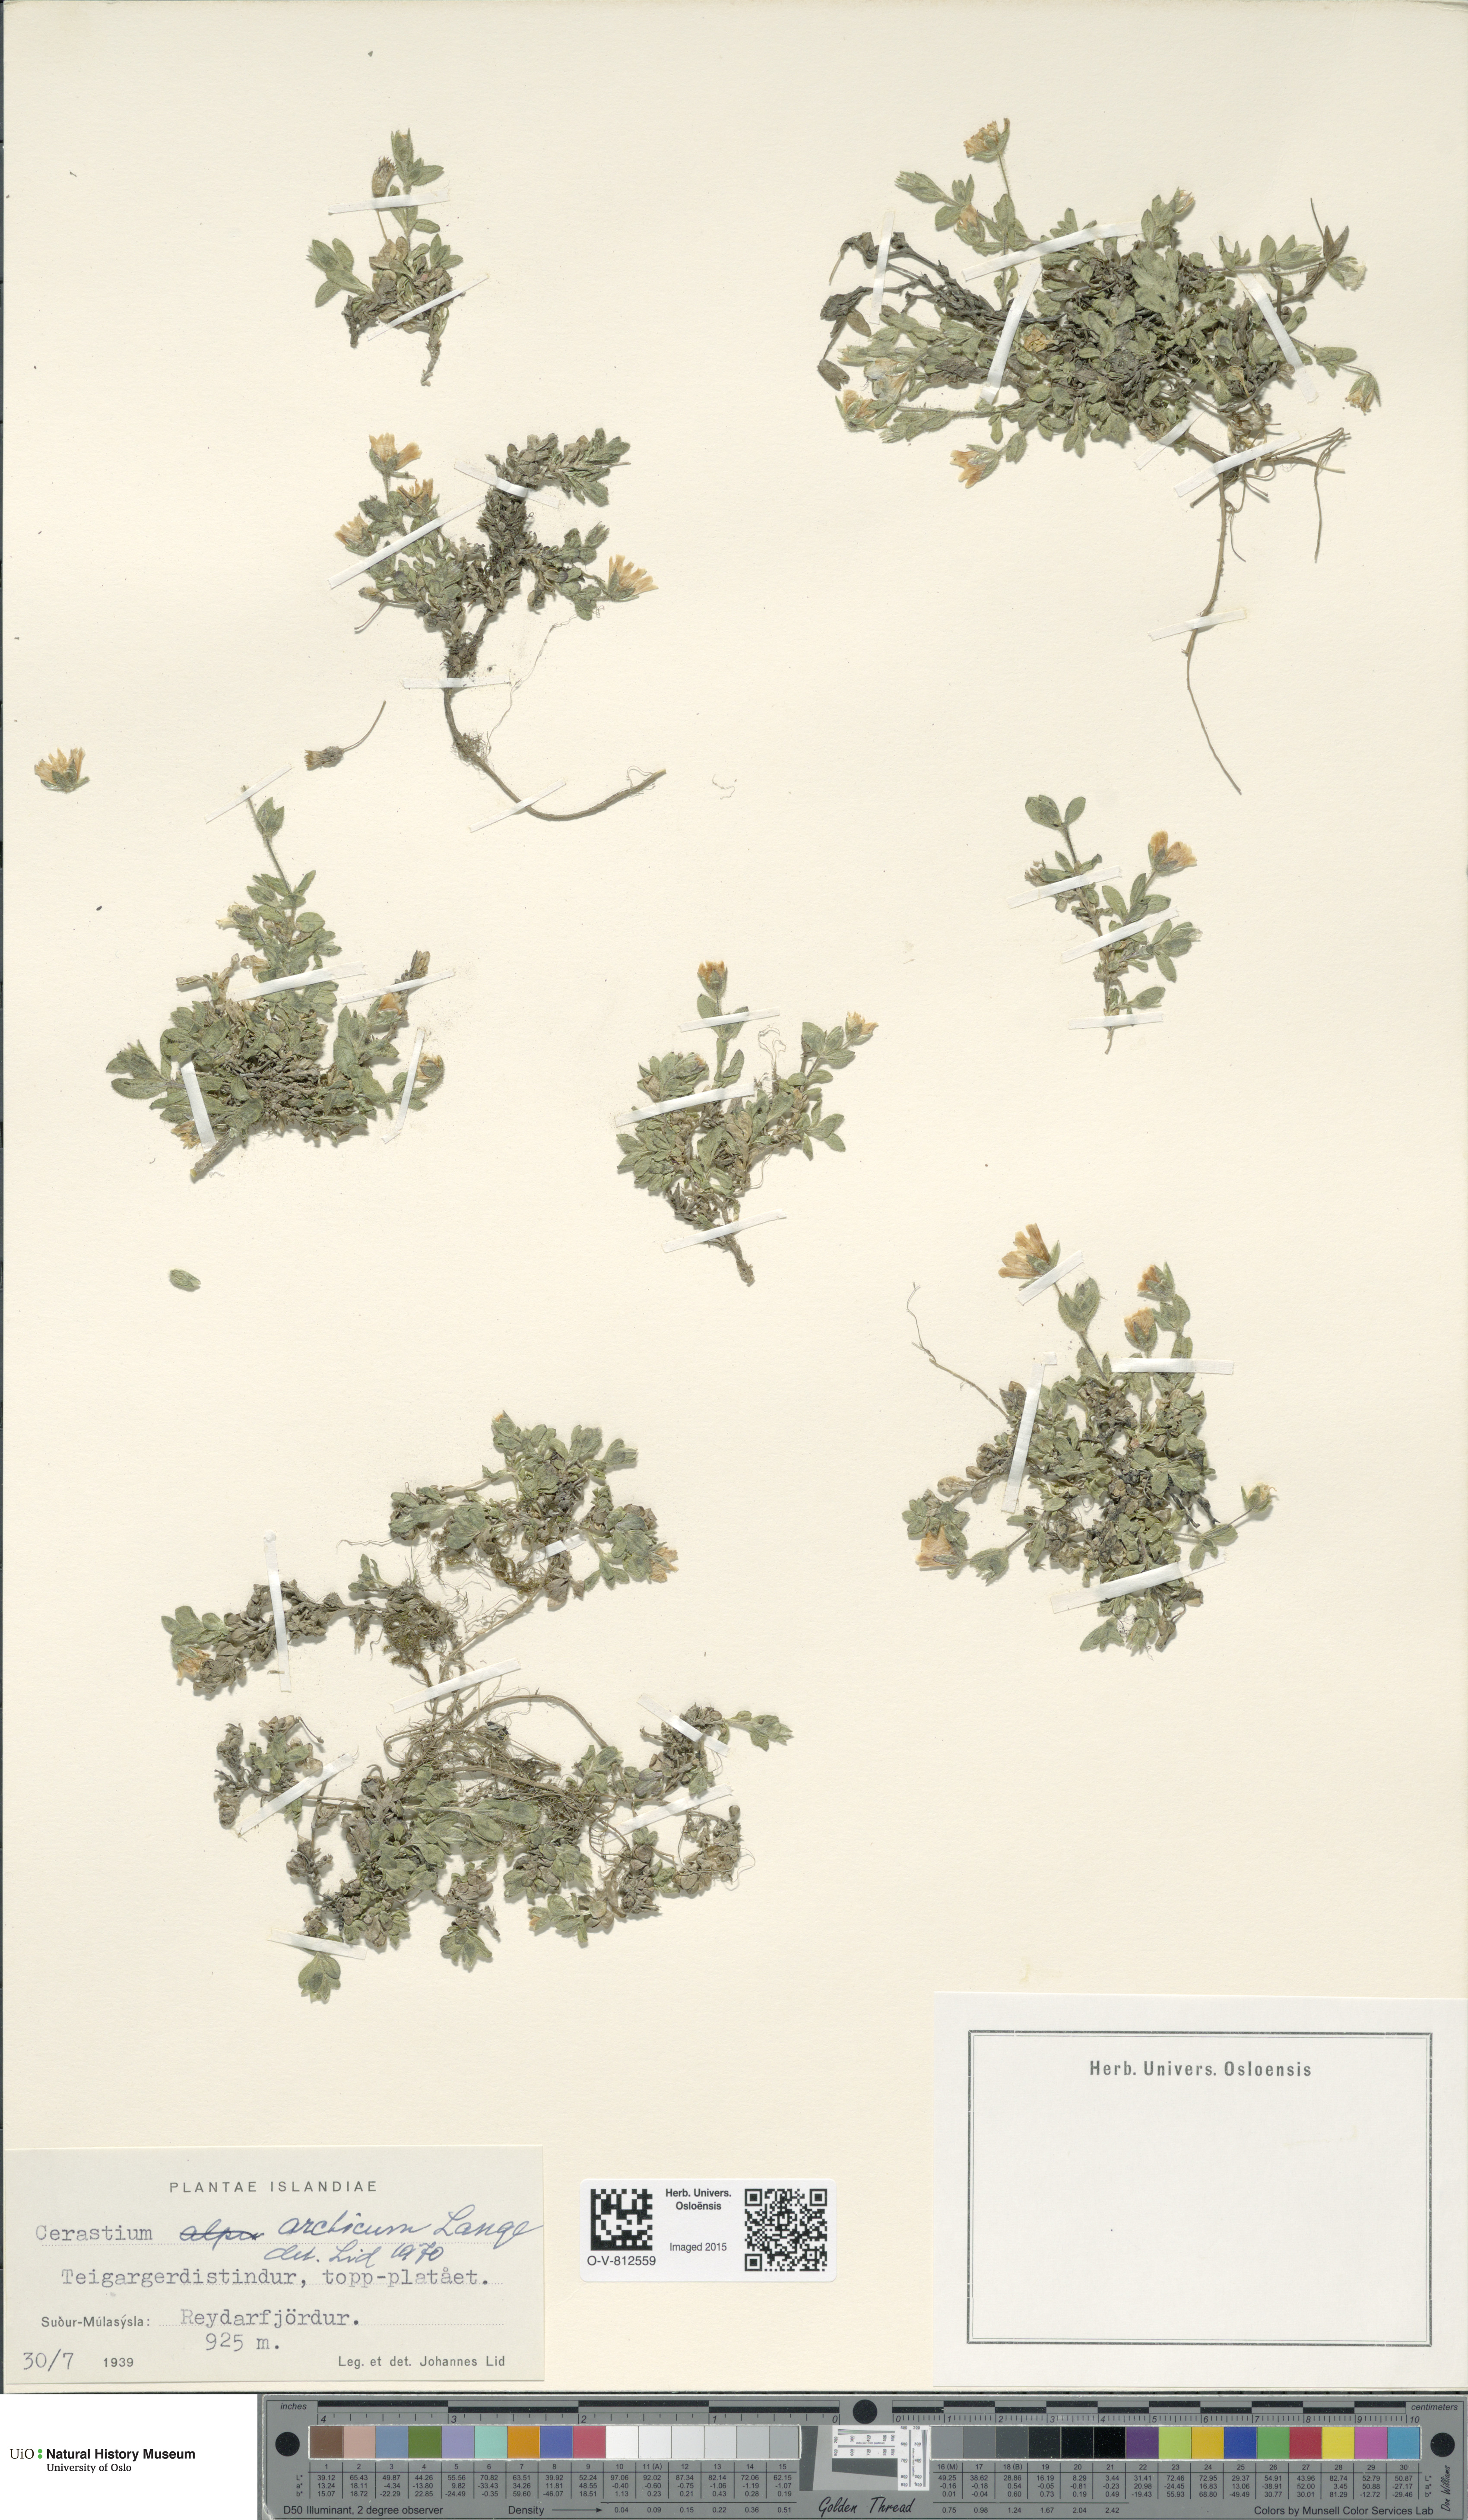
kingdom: Plantae
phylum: Tracheophyta
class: Magnoliopsida
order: Caryophyllales
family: Caryophyllaceae
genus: Cerastium
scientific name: Cerastium arcticum
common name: Arctic mouse-ear
